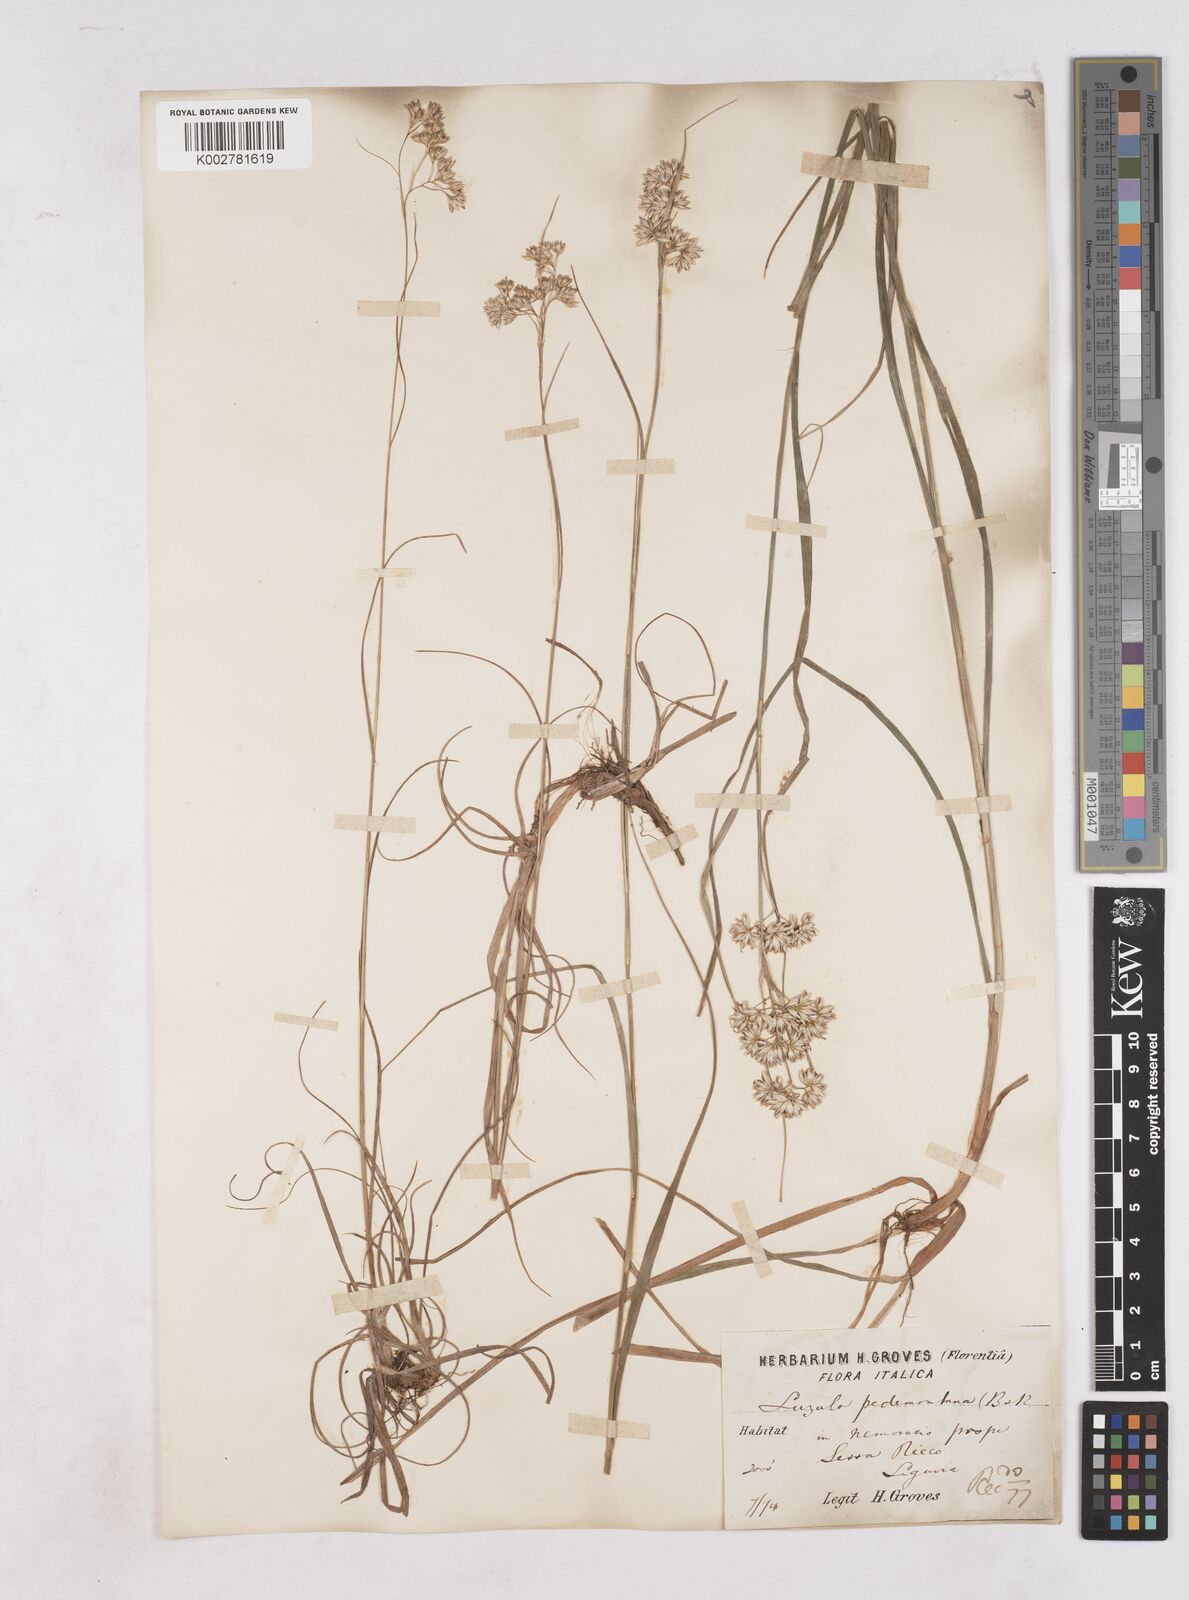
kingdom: Plantae
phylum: Tracheophyta
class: Liliopsida
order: Poales
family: Juncaceae
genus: Luzula
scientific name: Luzula pedemontana
